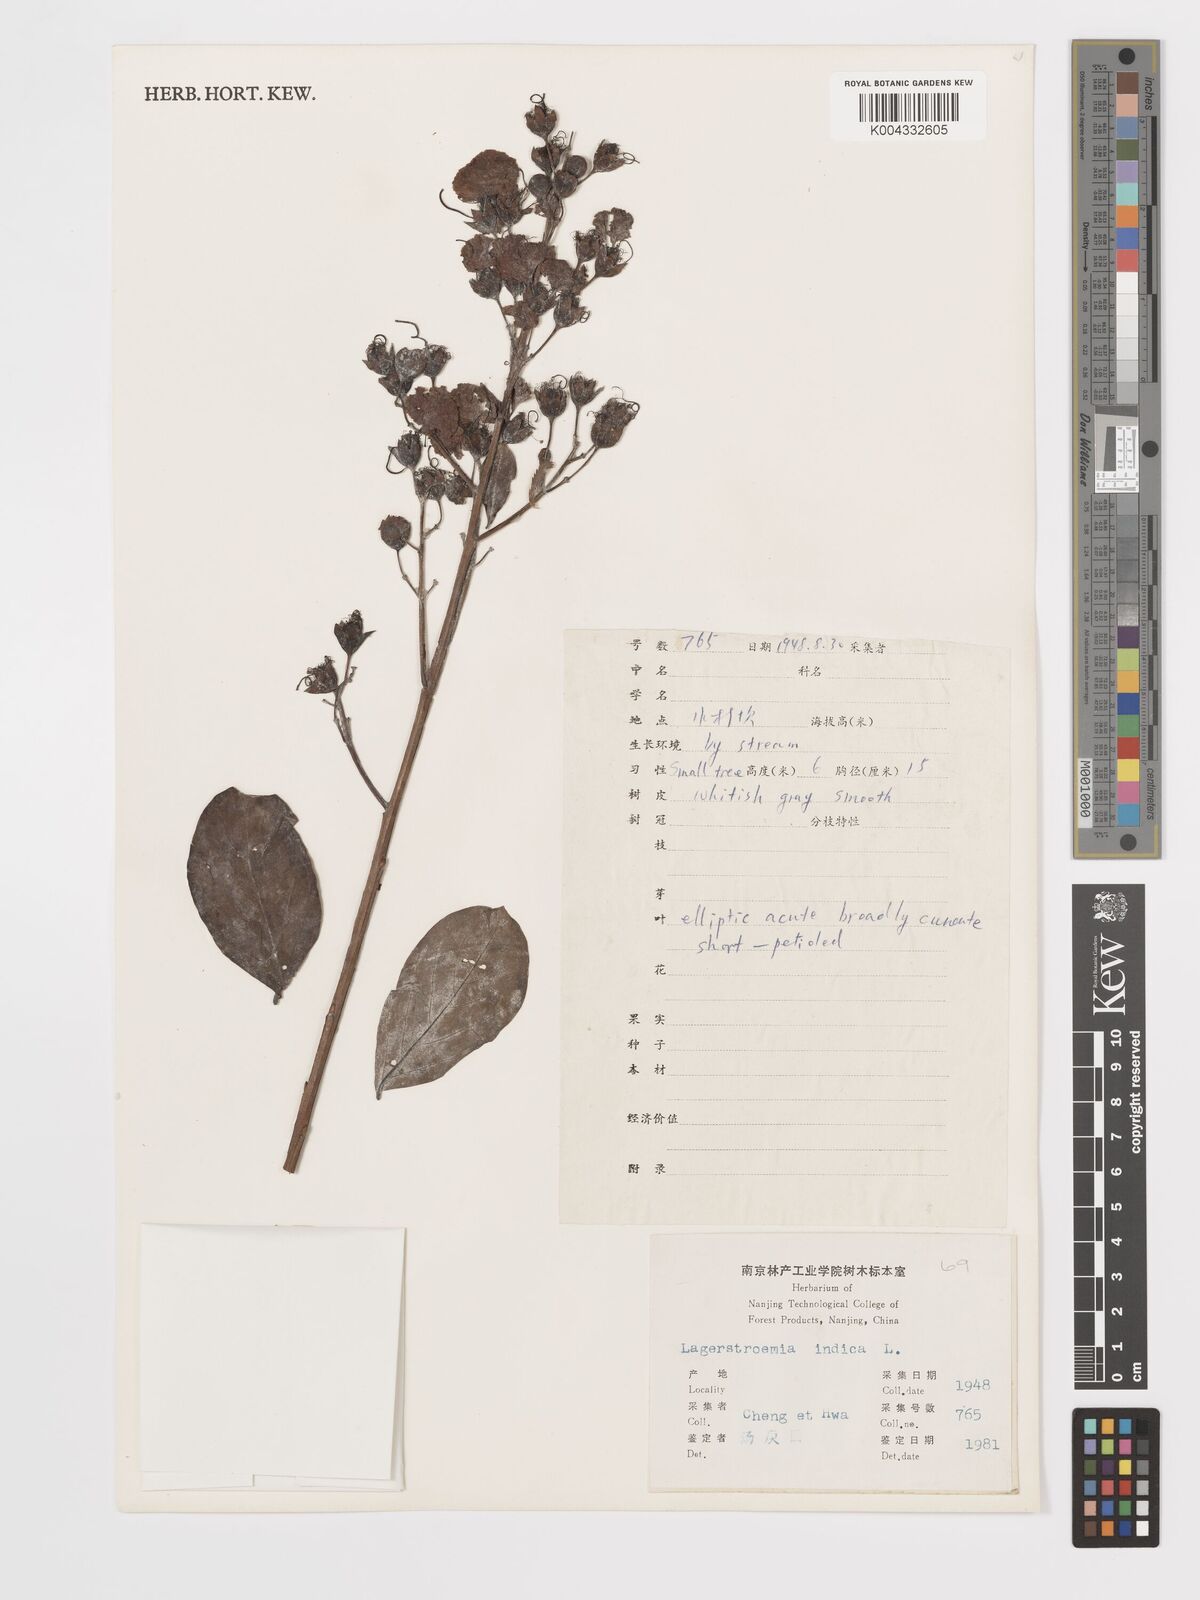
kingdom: Plantae
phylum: Tracheophyta
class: Magnoliopsida
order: Myrtales
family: Lythraceae
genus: Lagerstroemia
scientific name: Lagerstroemia indica
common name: Crape-myrtle
